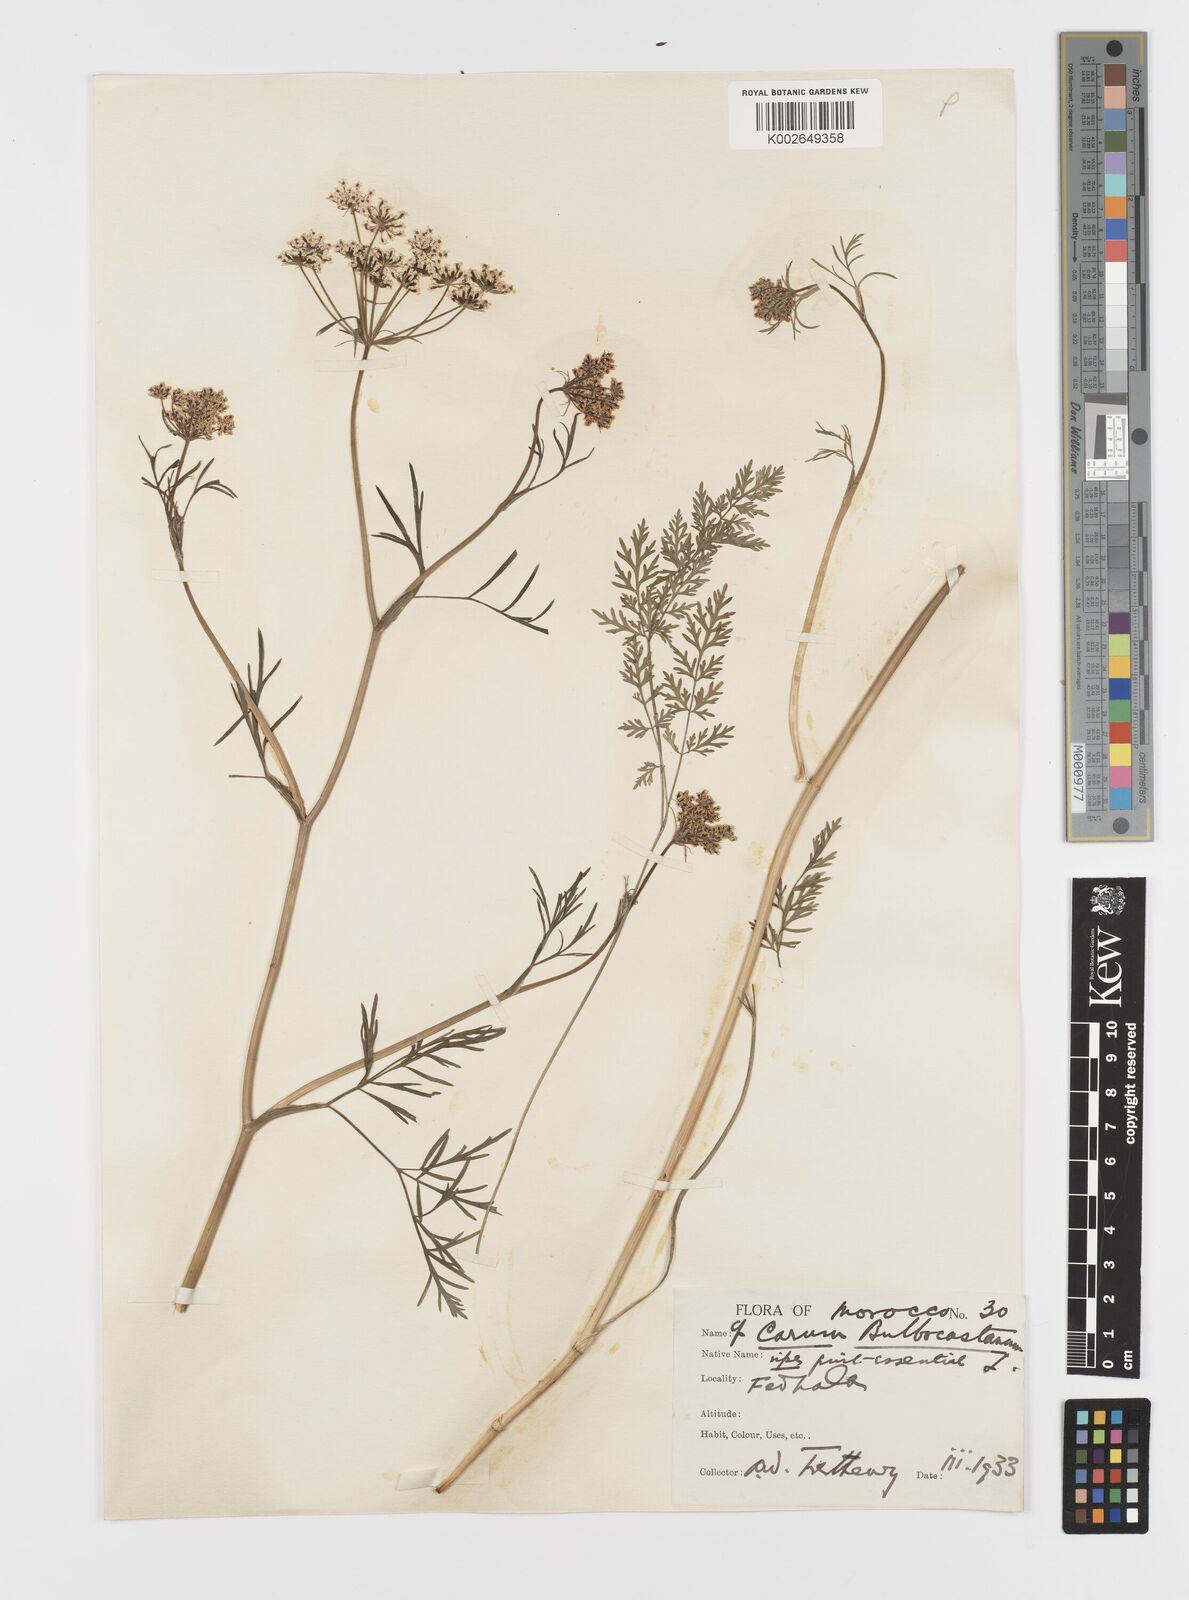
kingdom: Plantae
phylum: Tracheophyta
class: Magnoliopsida
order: Apiales
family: Apiaceae
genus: Bunium
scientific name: Bunium bulbocastanum
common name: Great pignut
